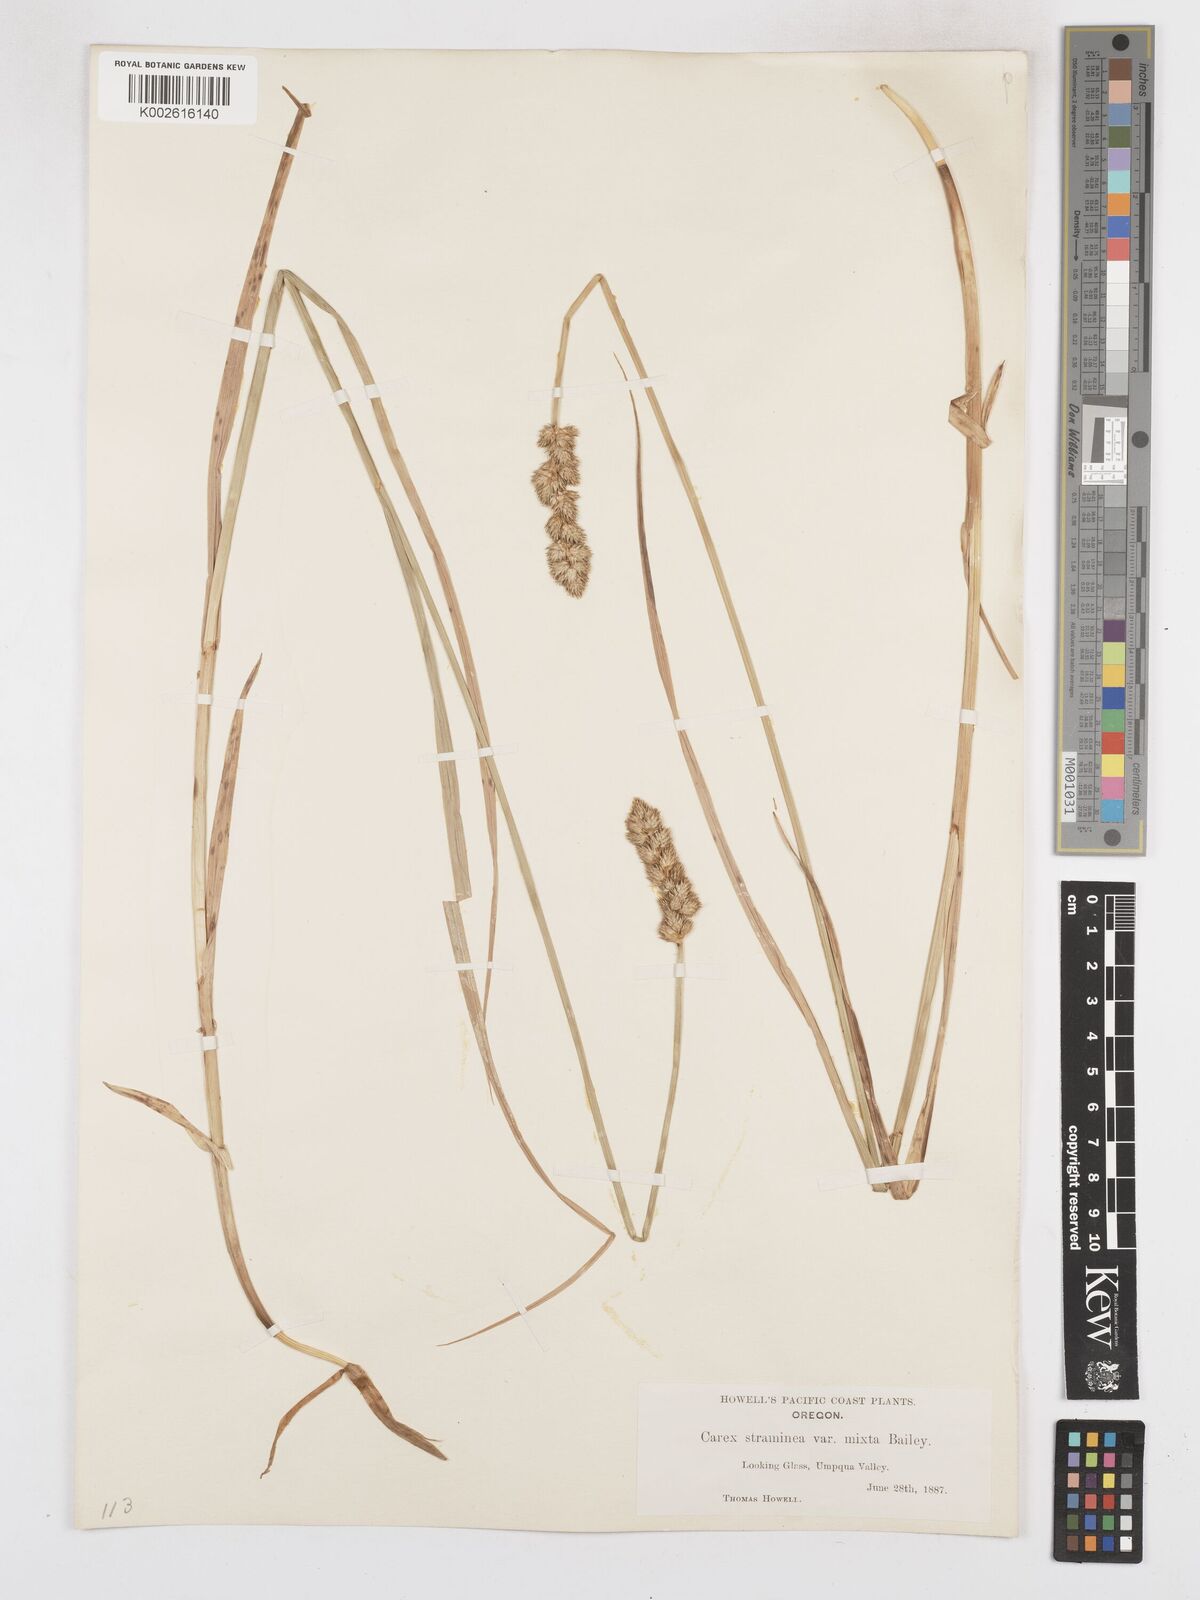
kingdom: Plantae
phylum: Tracheophyta
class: Liliopsida
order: Poales
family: Cyperaceae
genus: Carex
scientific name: Carex brevior
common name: Brevior sedge
